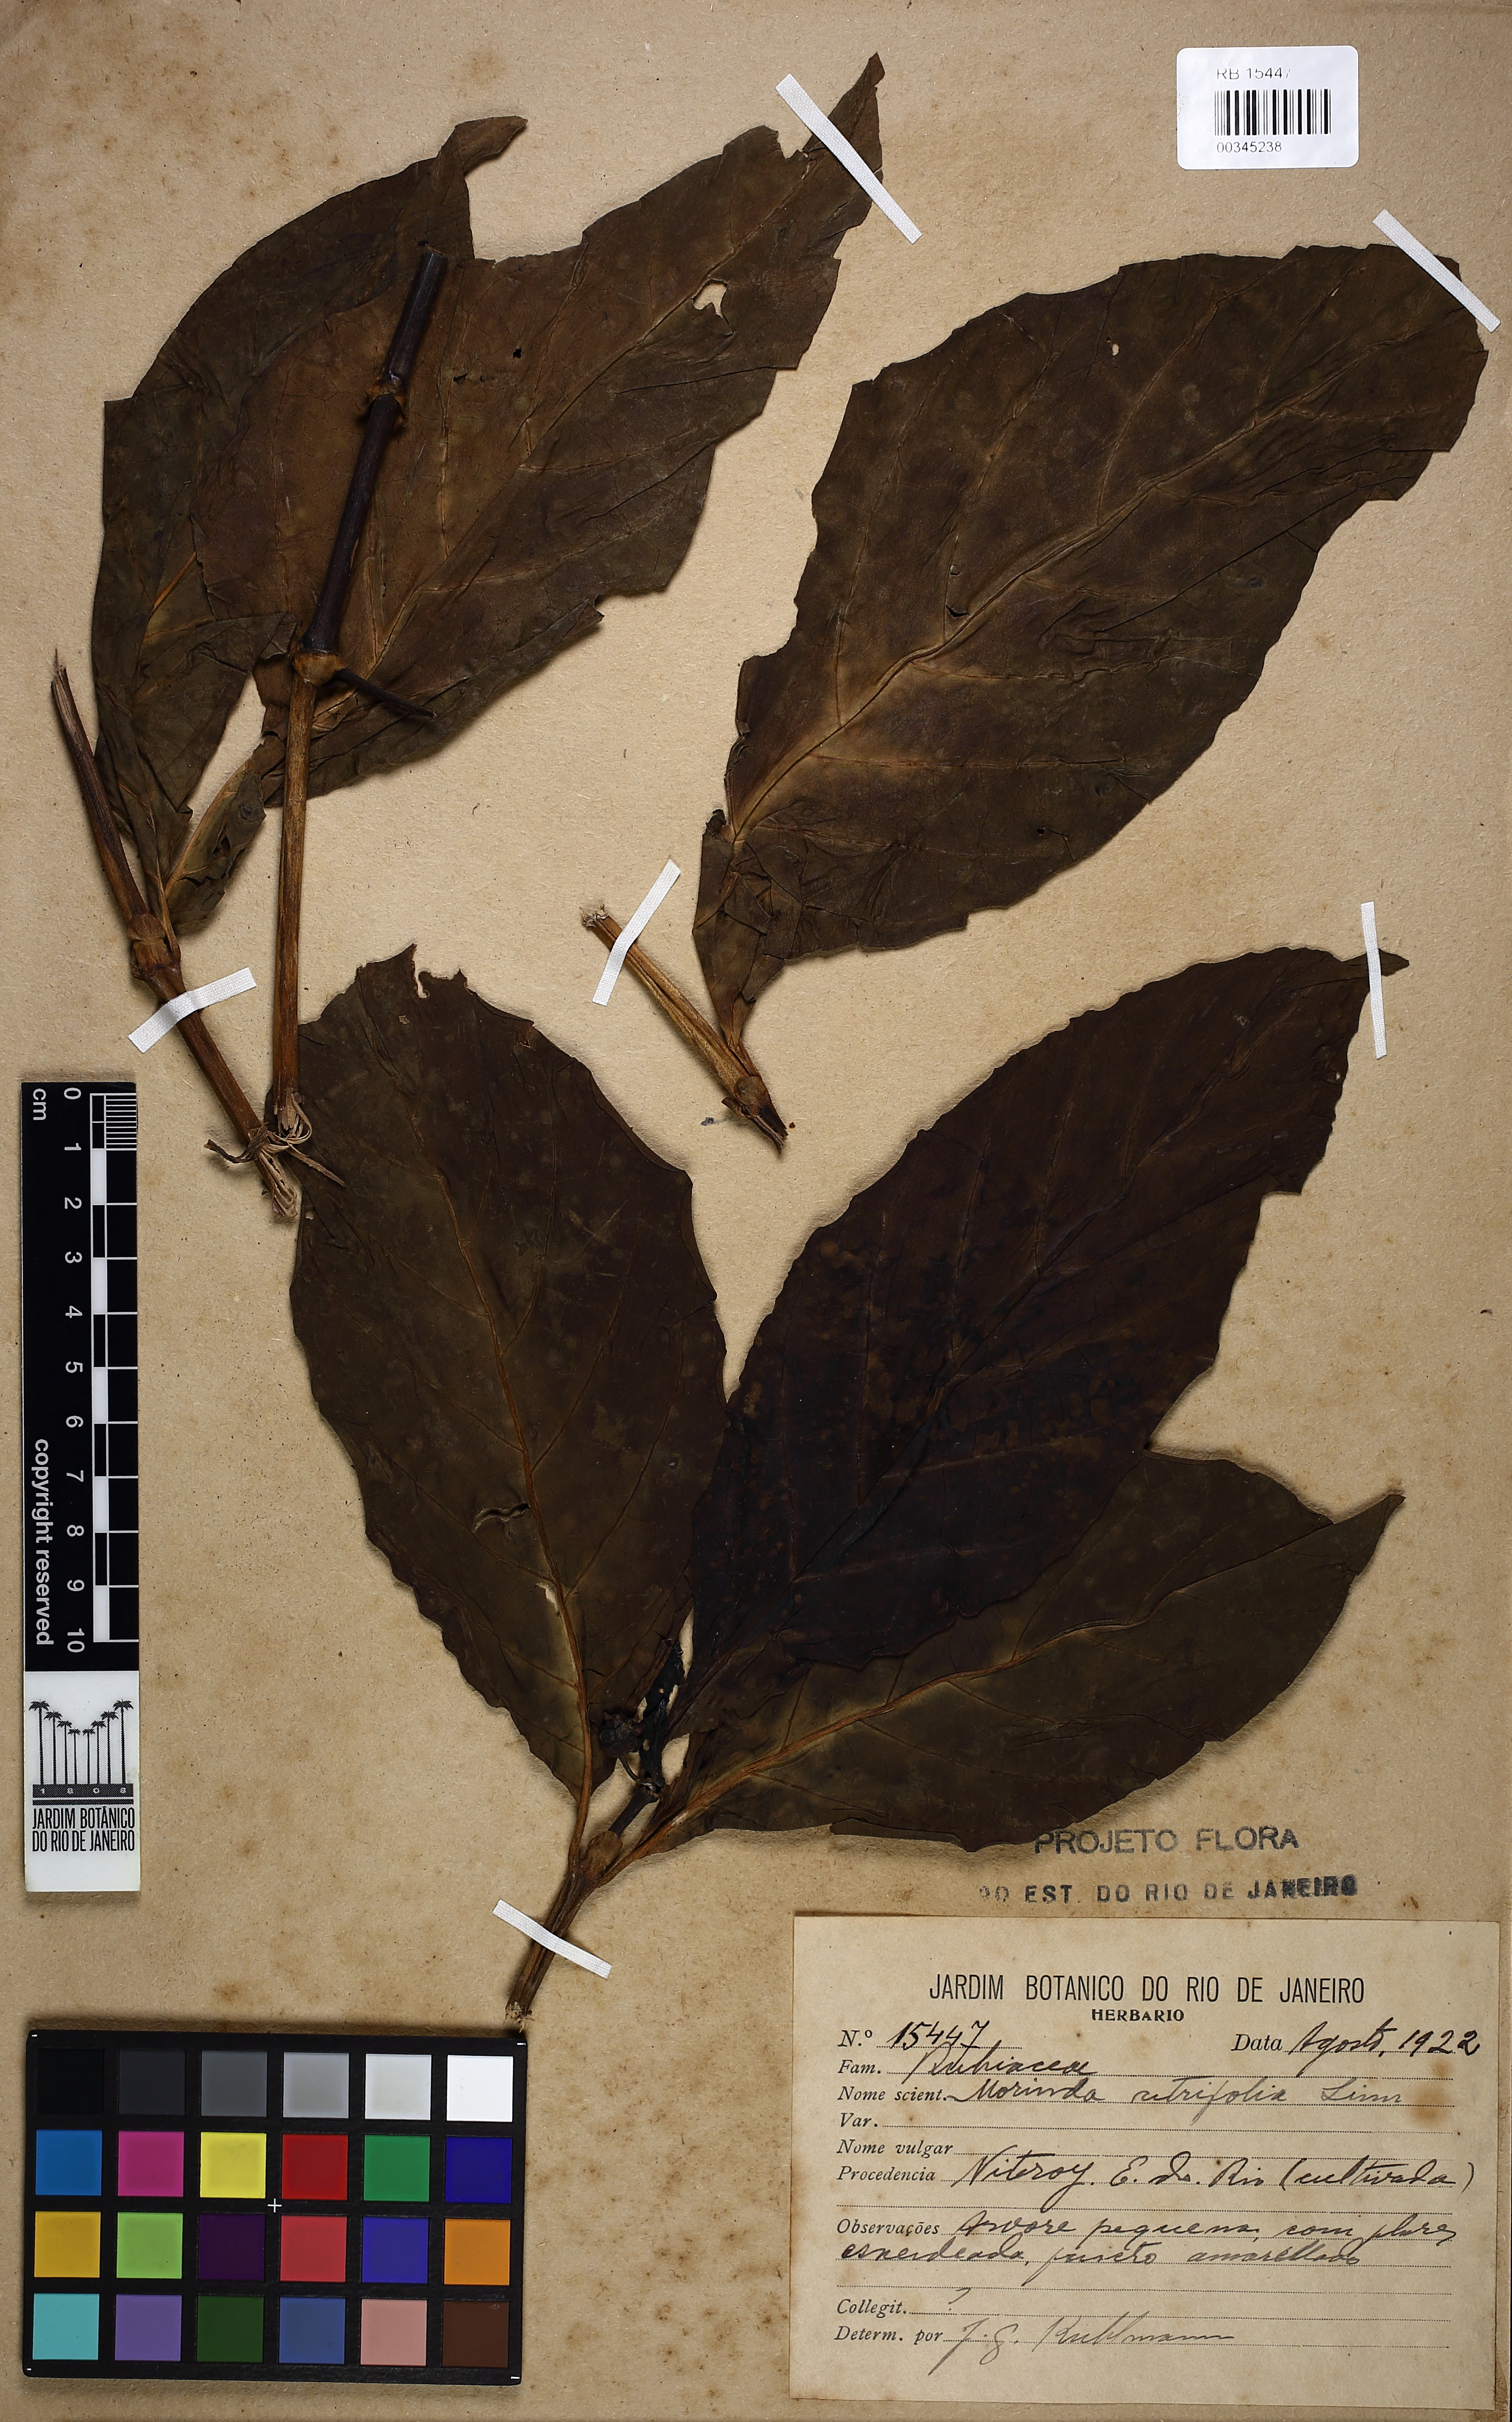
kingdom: Plantae
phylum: Tracheophyta
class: Magnoliopsida
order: Gentianales
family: Rubiaceae
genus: Morinda
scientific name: Morinda citrifolia
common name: Indian-mulberry
